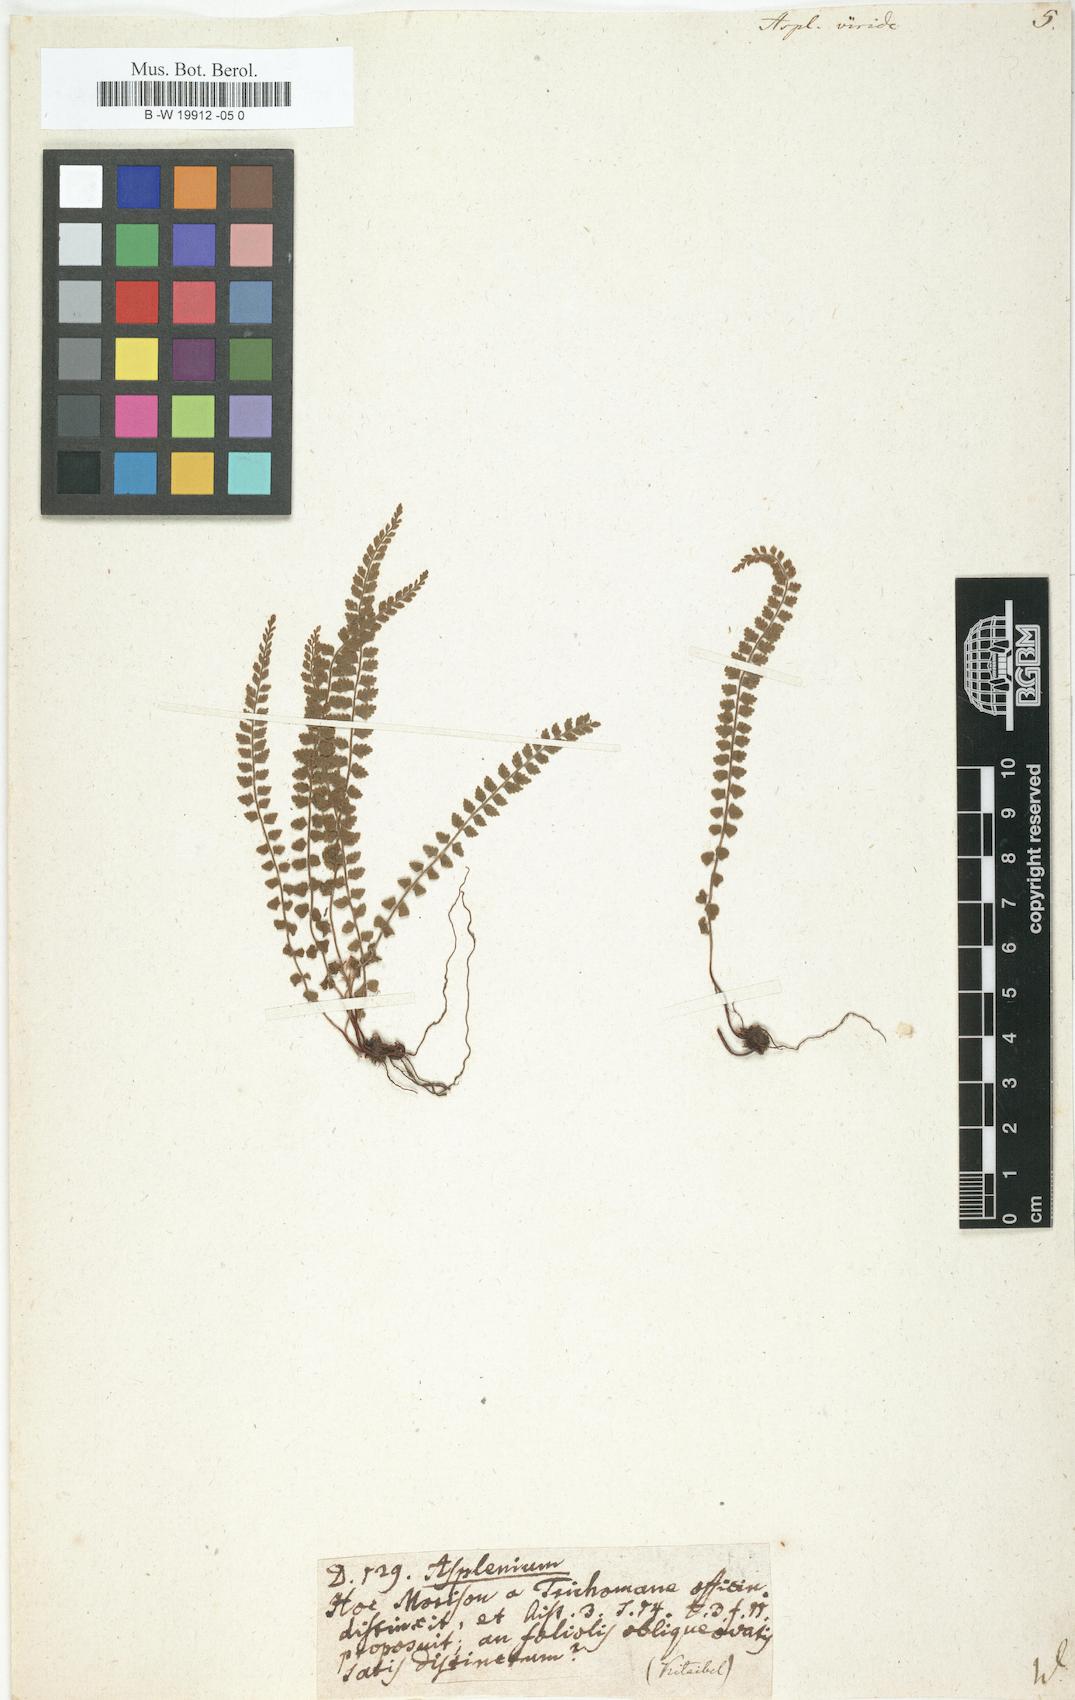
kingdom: Plantae
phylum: Tracheophyta
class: Polypodiopsida
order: Polypodiales
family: Aspleniaceae
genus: Asplenium
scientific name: Asplenium viride
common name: Green spleenwort
